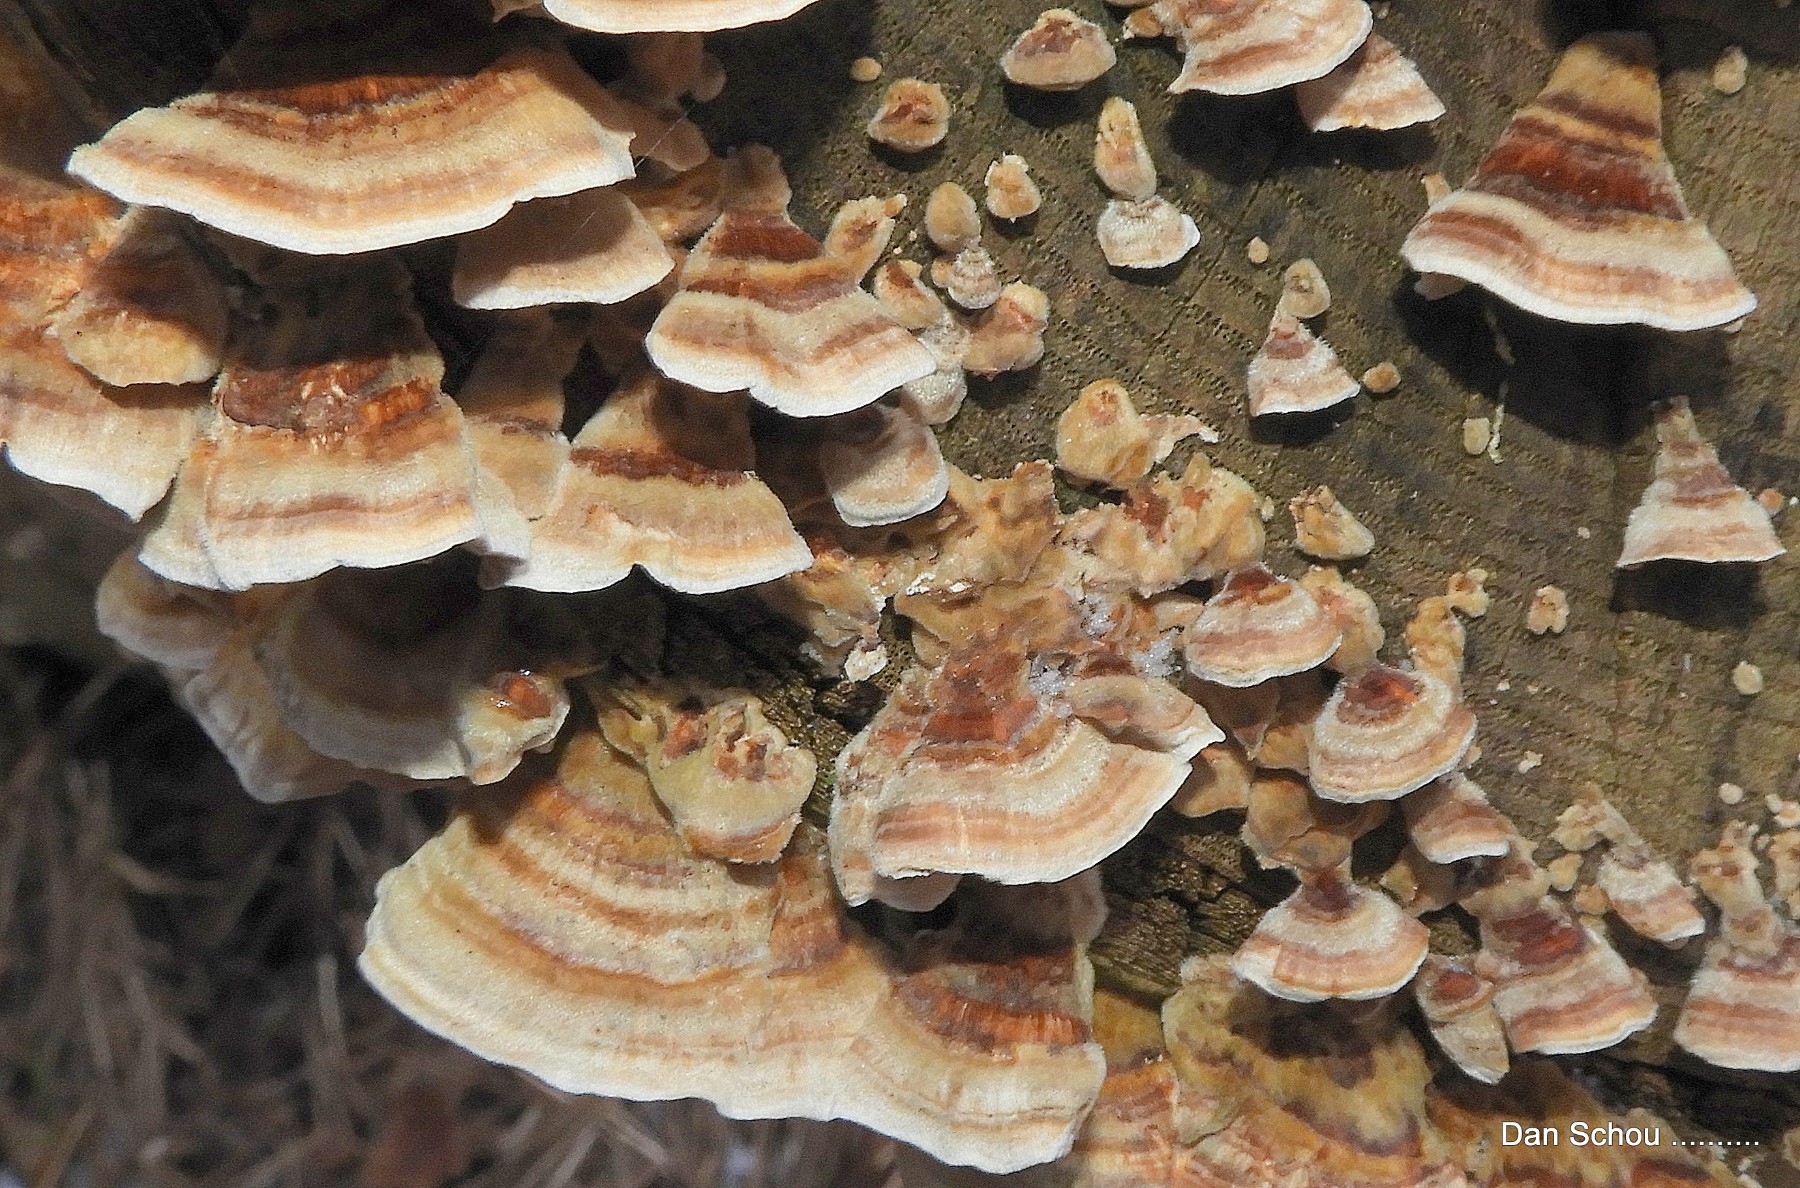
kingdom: Fungi
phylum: Basidiomycota
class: Agaricomycetes
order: Polyporales
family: Polyporaceae
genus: Trametes
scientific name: Trametes ochracea
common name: bæltet læderporesvamp
